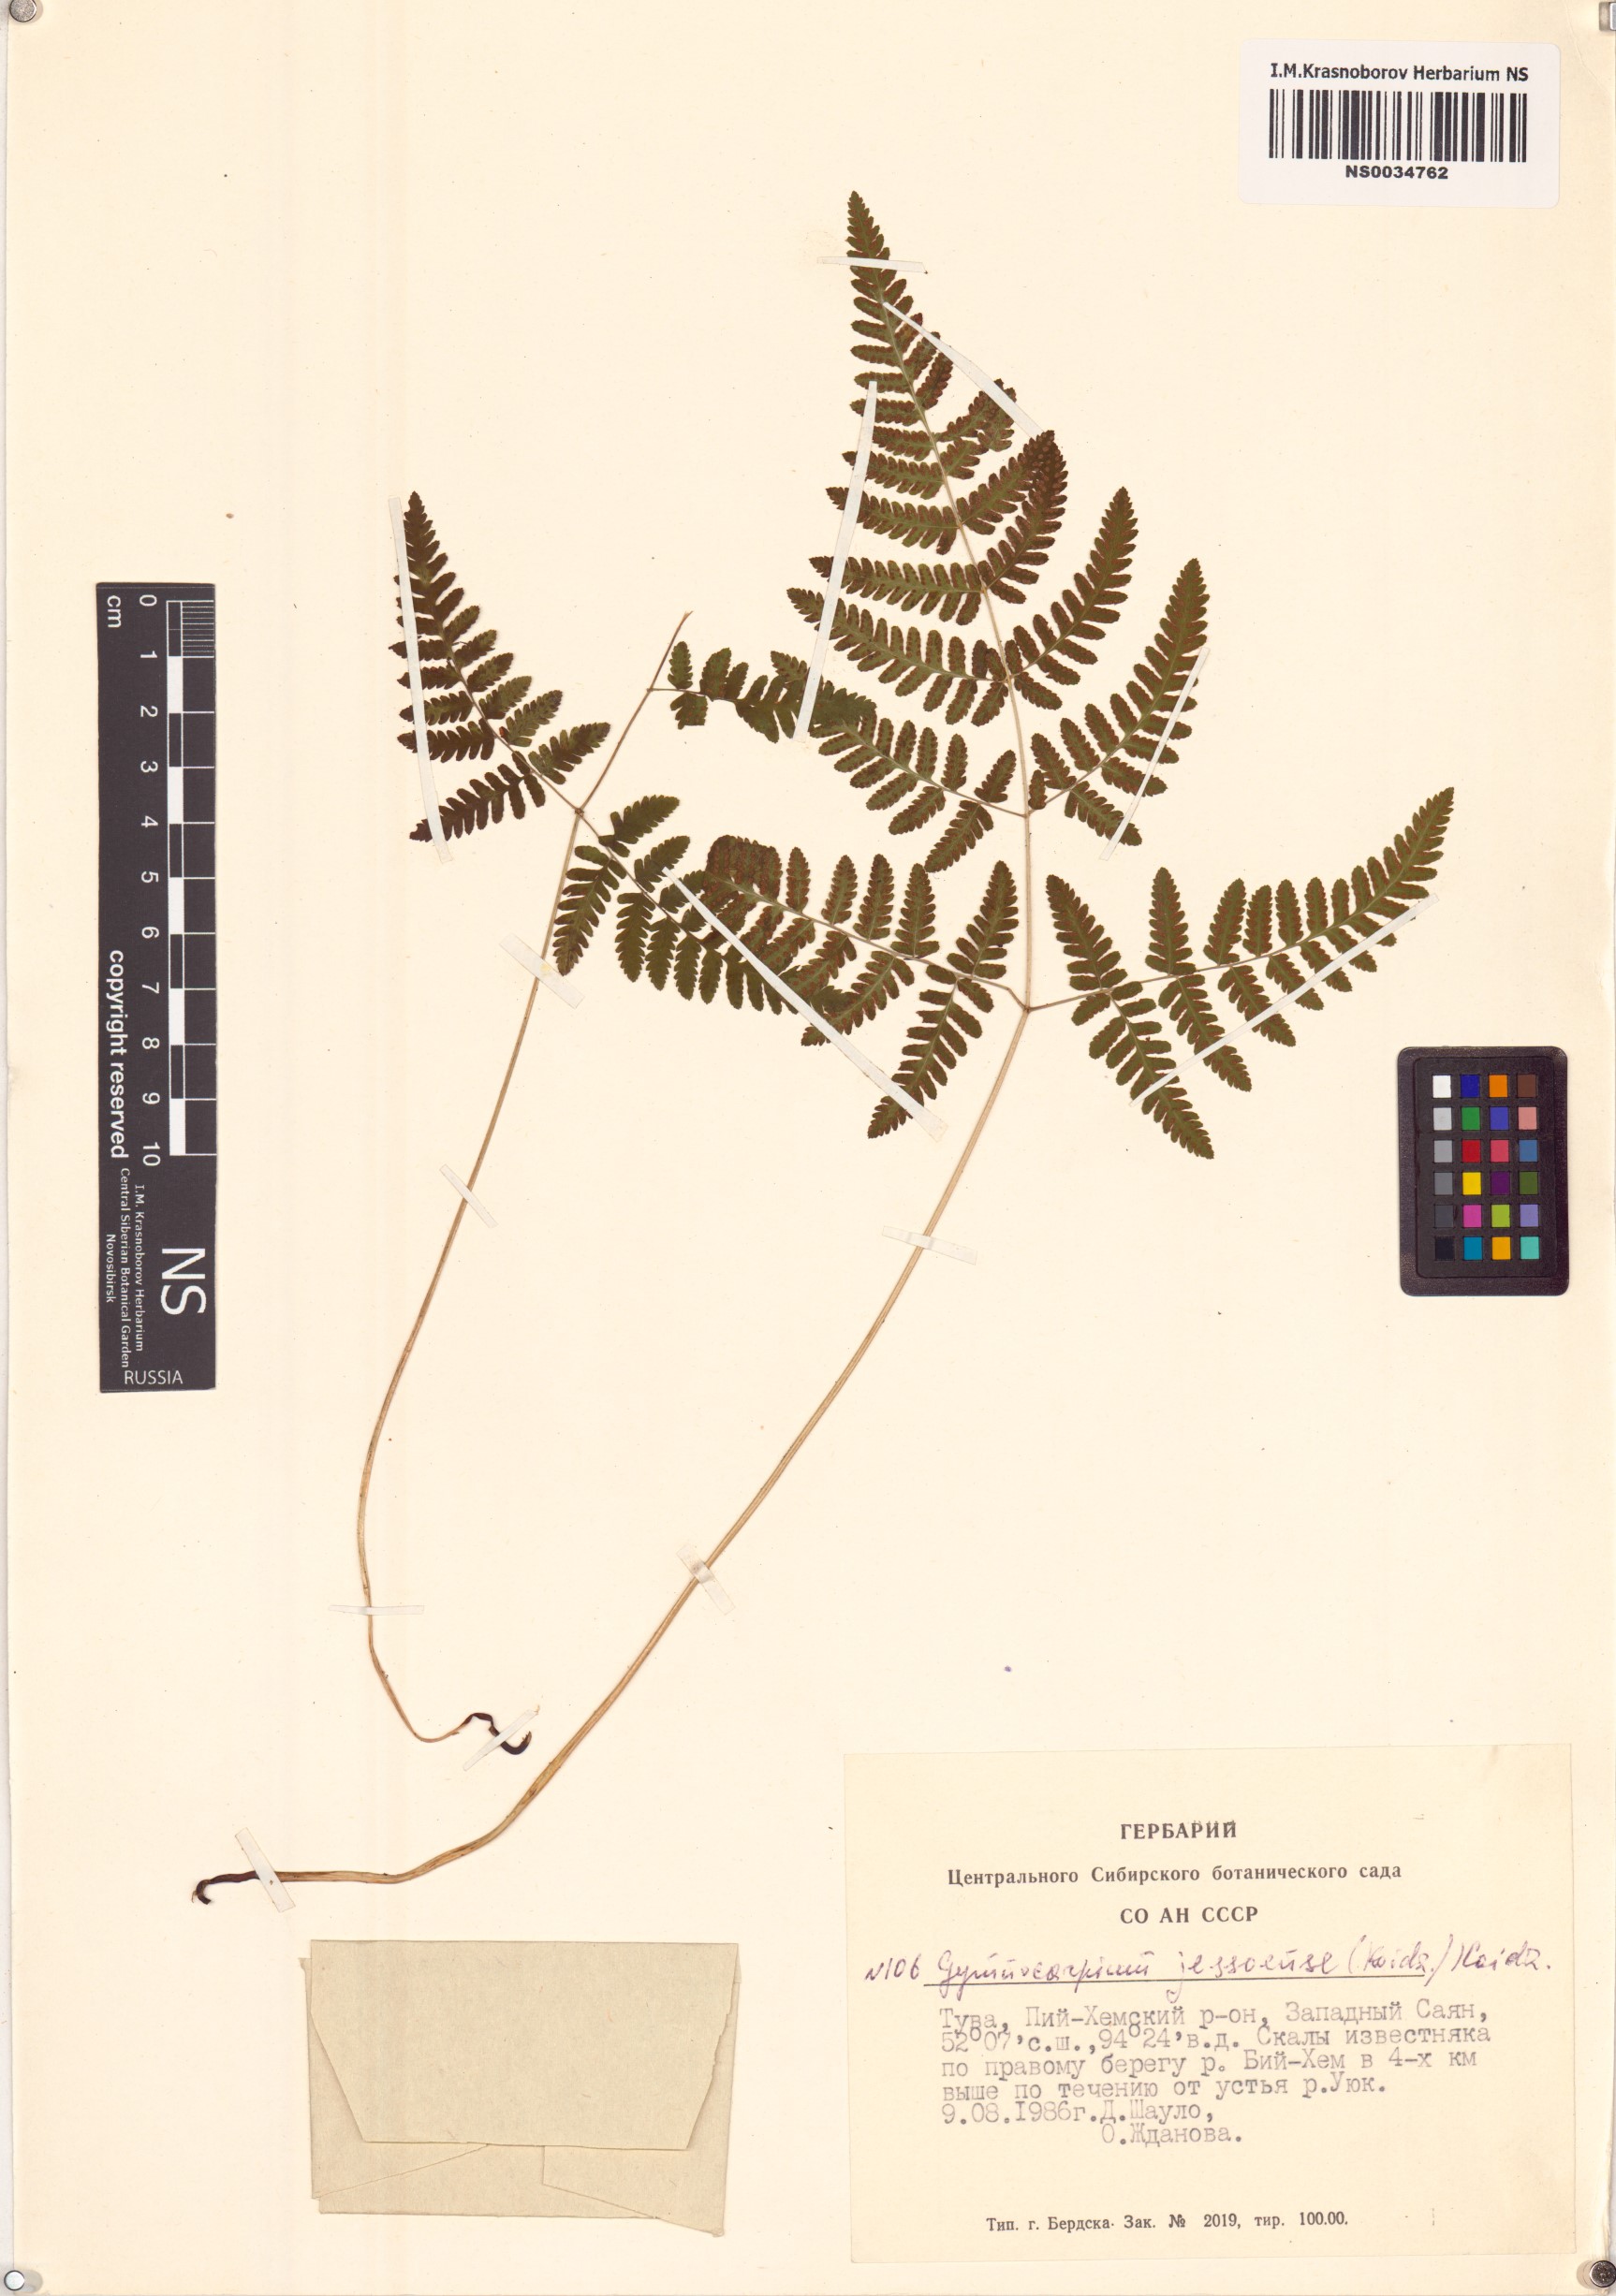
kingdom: Plantae
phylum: Tracheophyta
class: Polypodiopsida
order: Polypodiales
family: Cystopteridaceae
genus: Gymnocarpium
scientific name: Gymnocarpium jessoense
